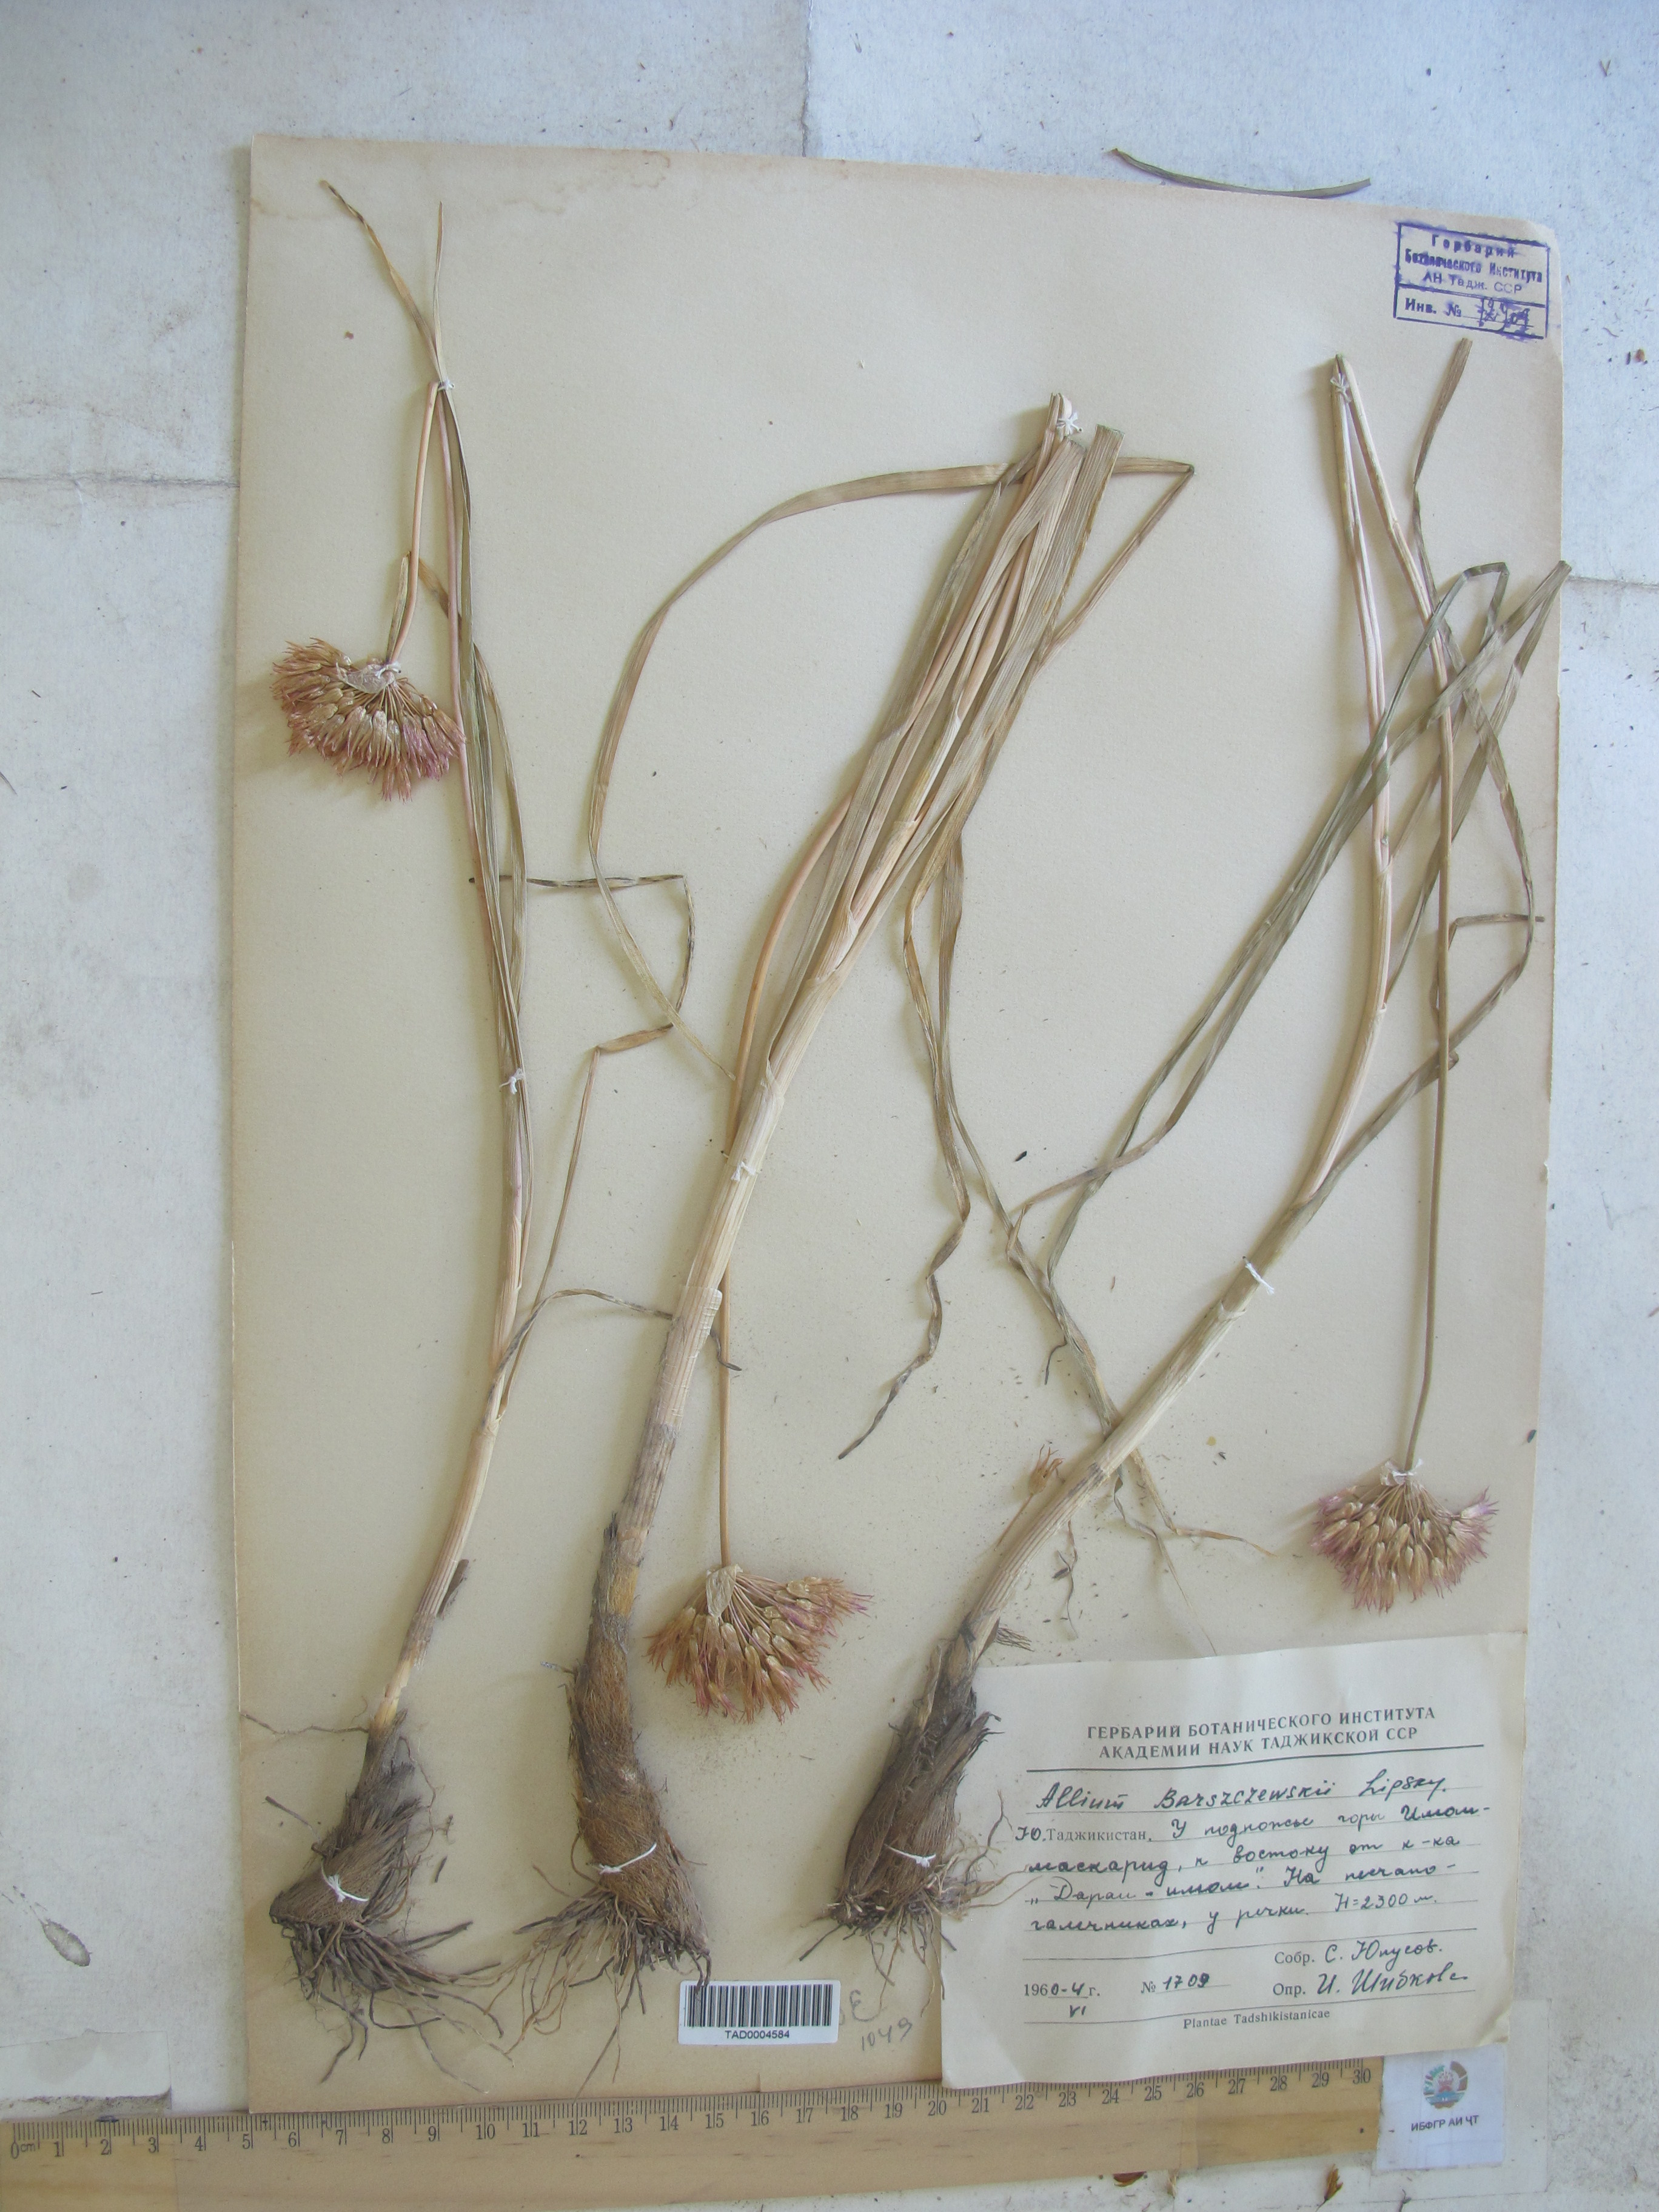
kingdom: Plantae
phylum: Tracheophyta
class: Liliopsida
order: Asparagales
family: Amaryllidaceae
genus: Allium
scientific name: Allium barsczewskii
